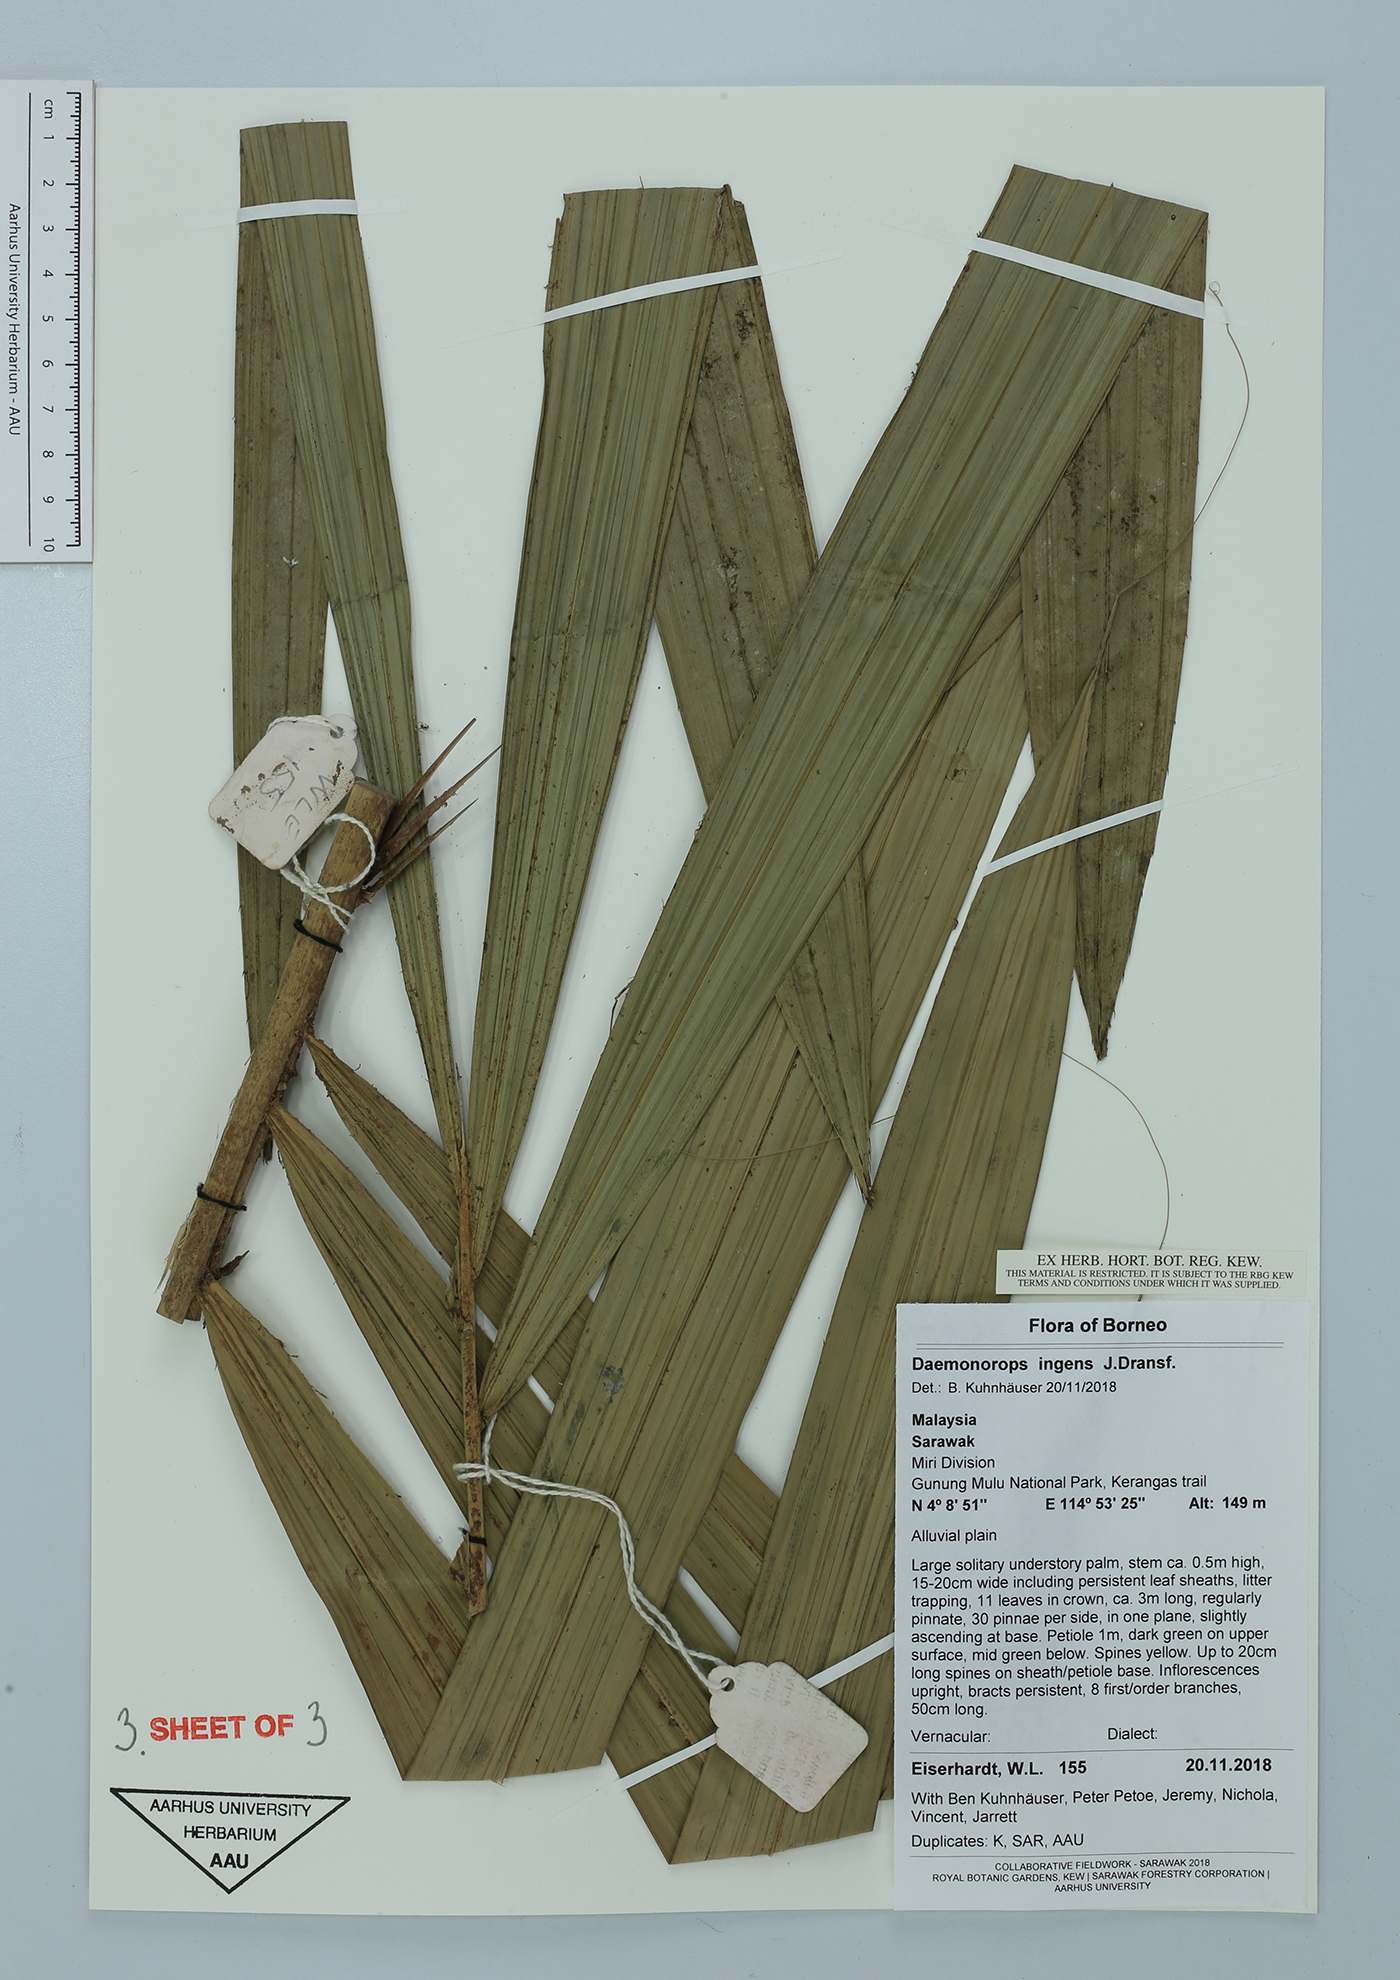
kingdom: Plantae
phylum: Tracheophyta
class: Liliopsida
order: Arecales
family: Arecaceae
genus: Calamus
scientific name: Calamus ingens
